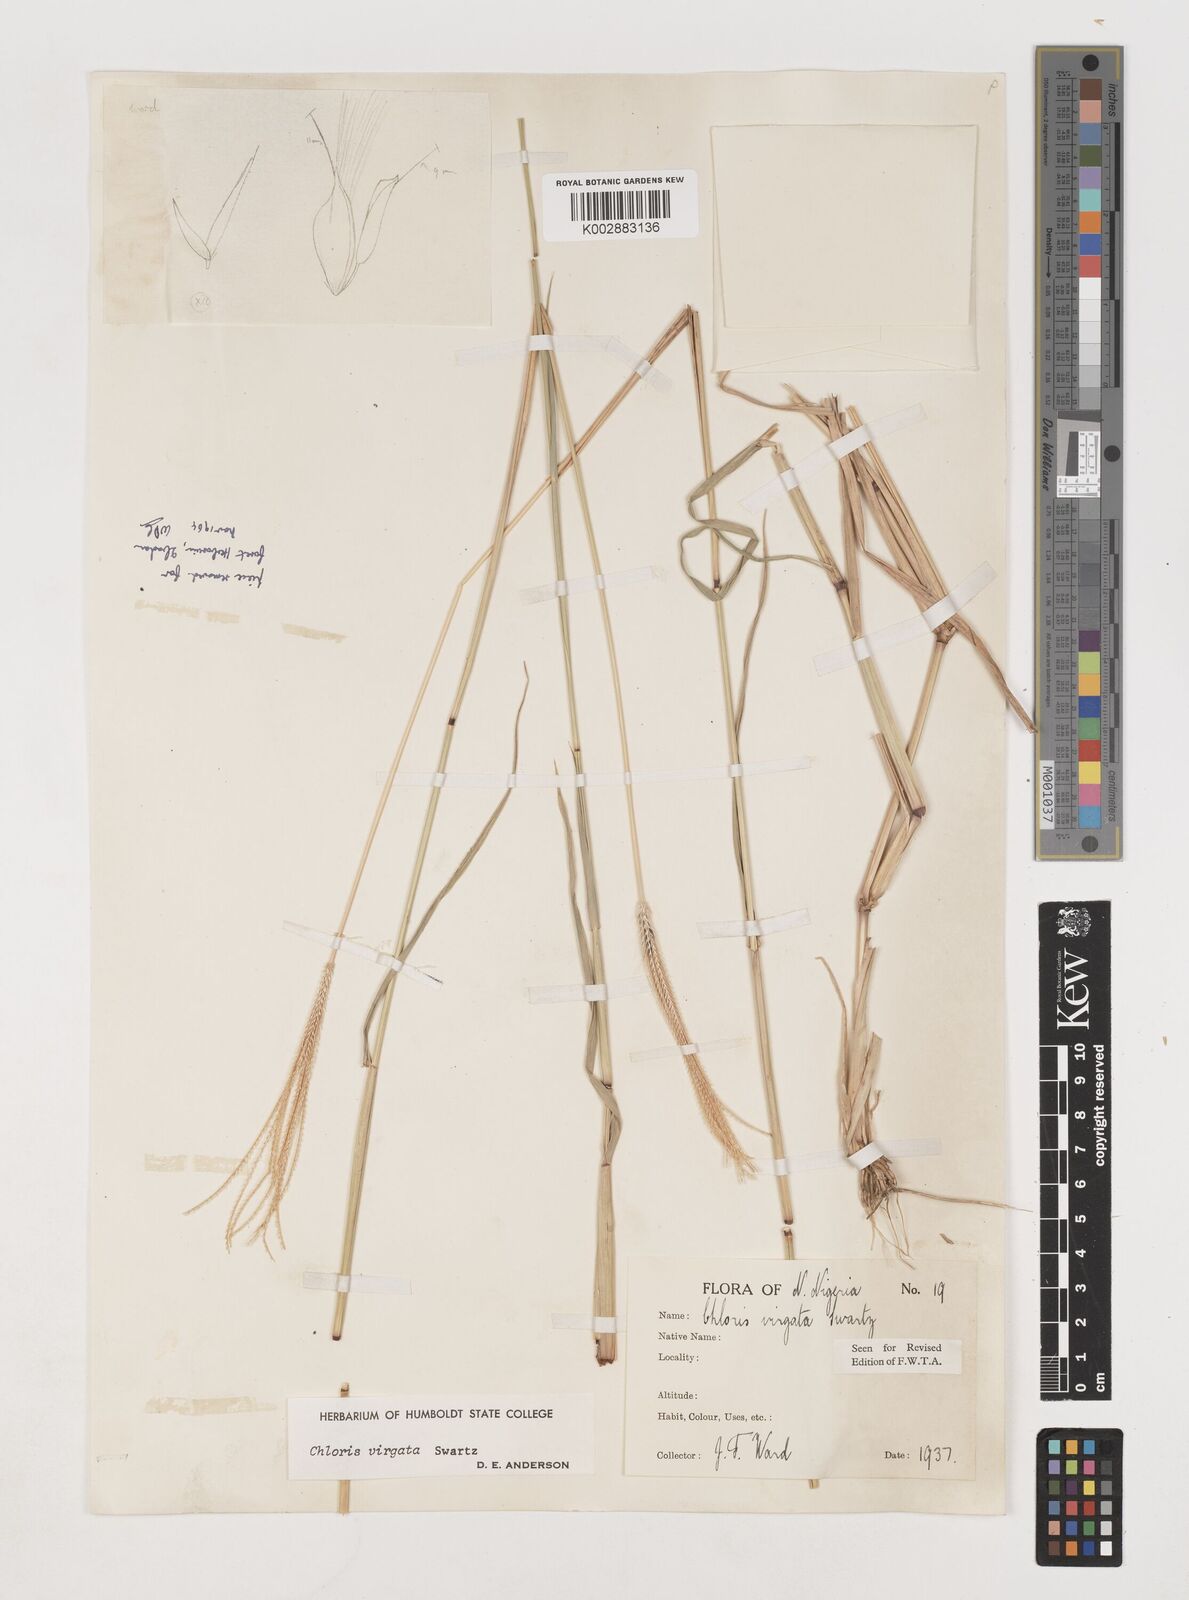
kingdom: Plantae
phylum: Tracheophyta
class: Liliopsida
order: Poales
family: Poaceae
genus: Chloris
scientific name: Chloris virgata
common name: Feathery rhodes-grass
